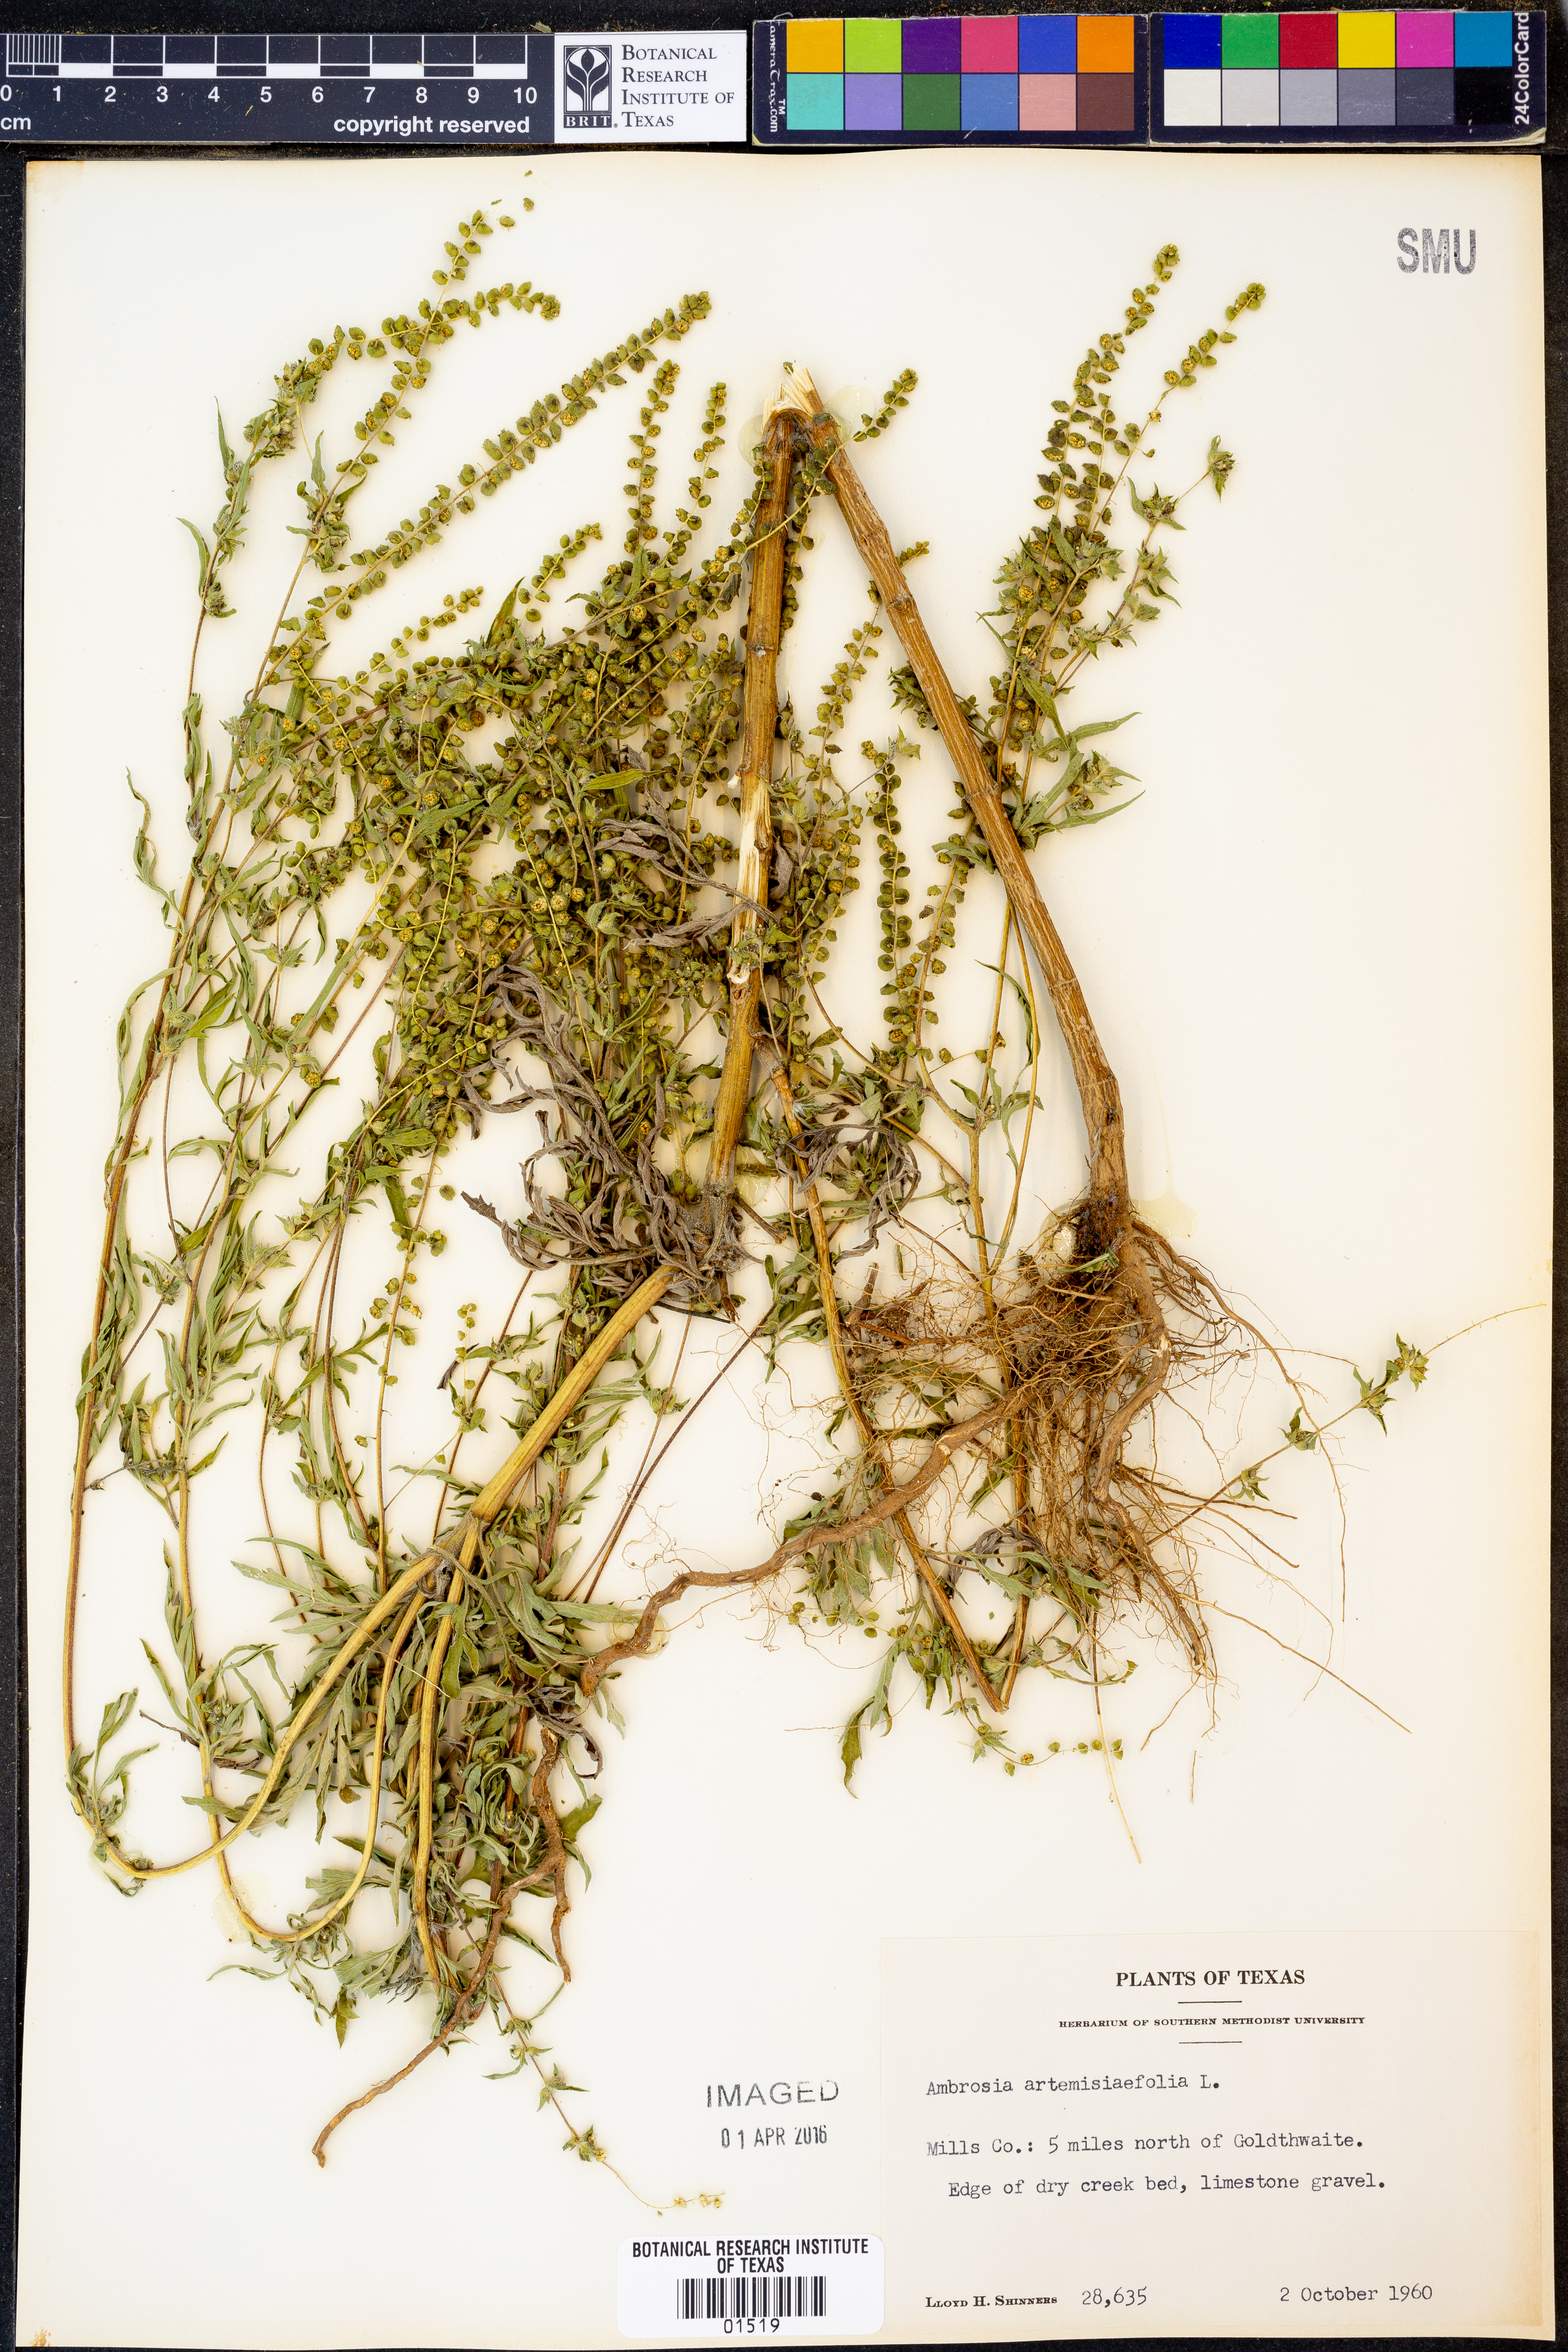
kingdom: Plantae
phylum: Tracheophyta
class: Magnoliopsida
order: Asterales
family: Asteraceae
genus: Ambrosia
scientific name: Ambrosia artemisiifolia
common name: Annual ragweed
